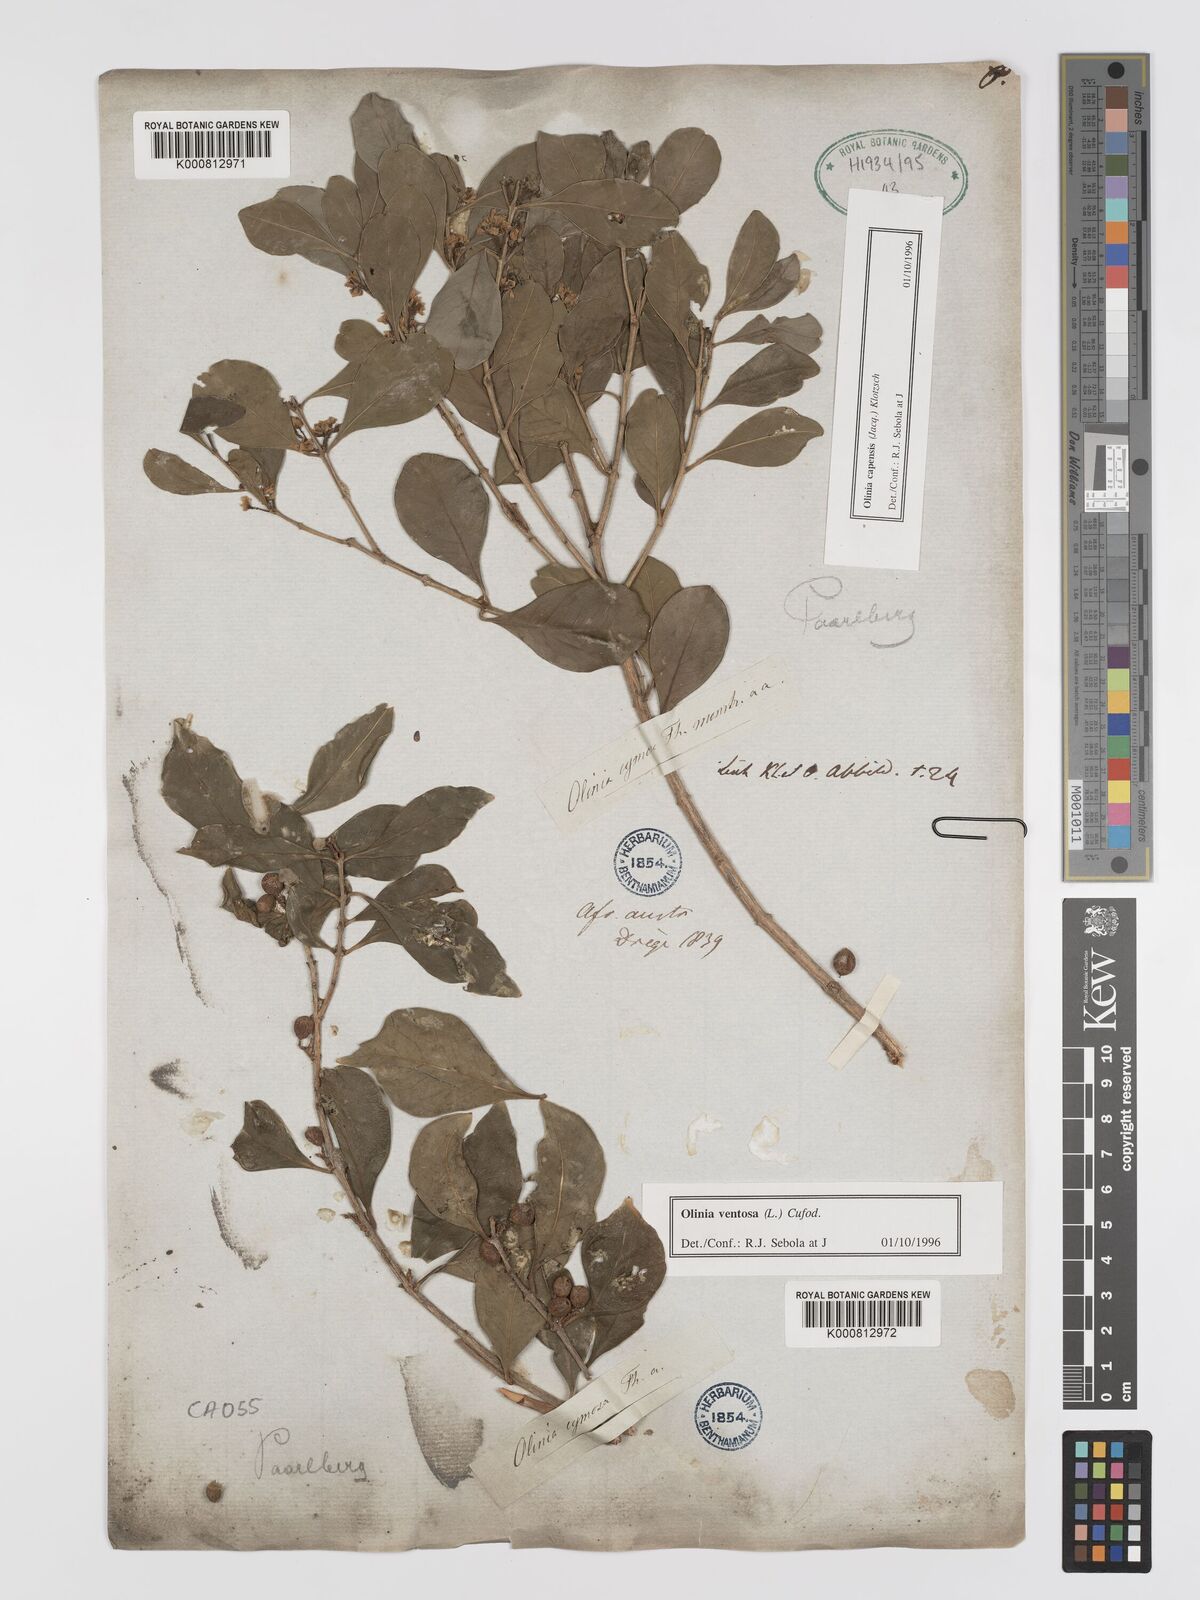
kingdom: Plantae
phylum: Tracheophyta
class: Magnoliopsida
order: Myrtales
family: Penaeaceae
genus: Olinia
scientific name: Olinia capensis
